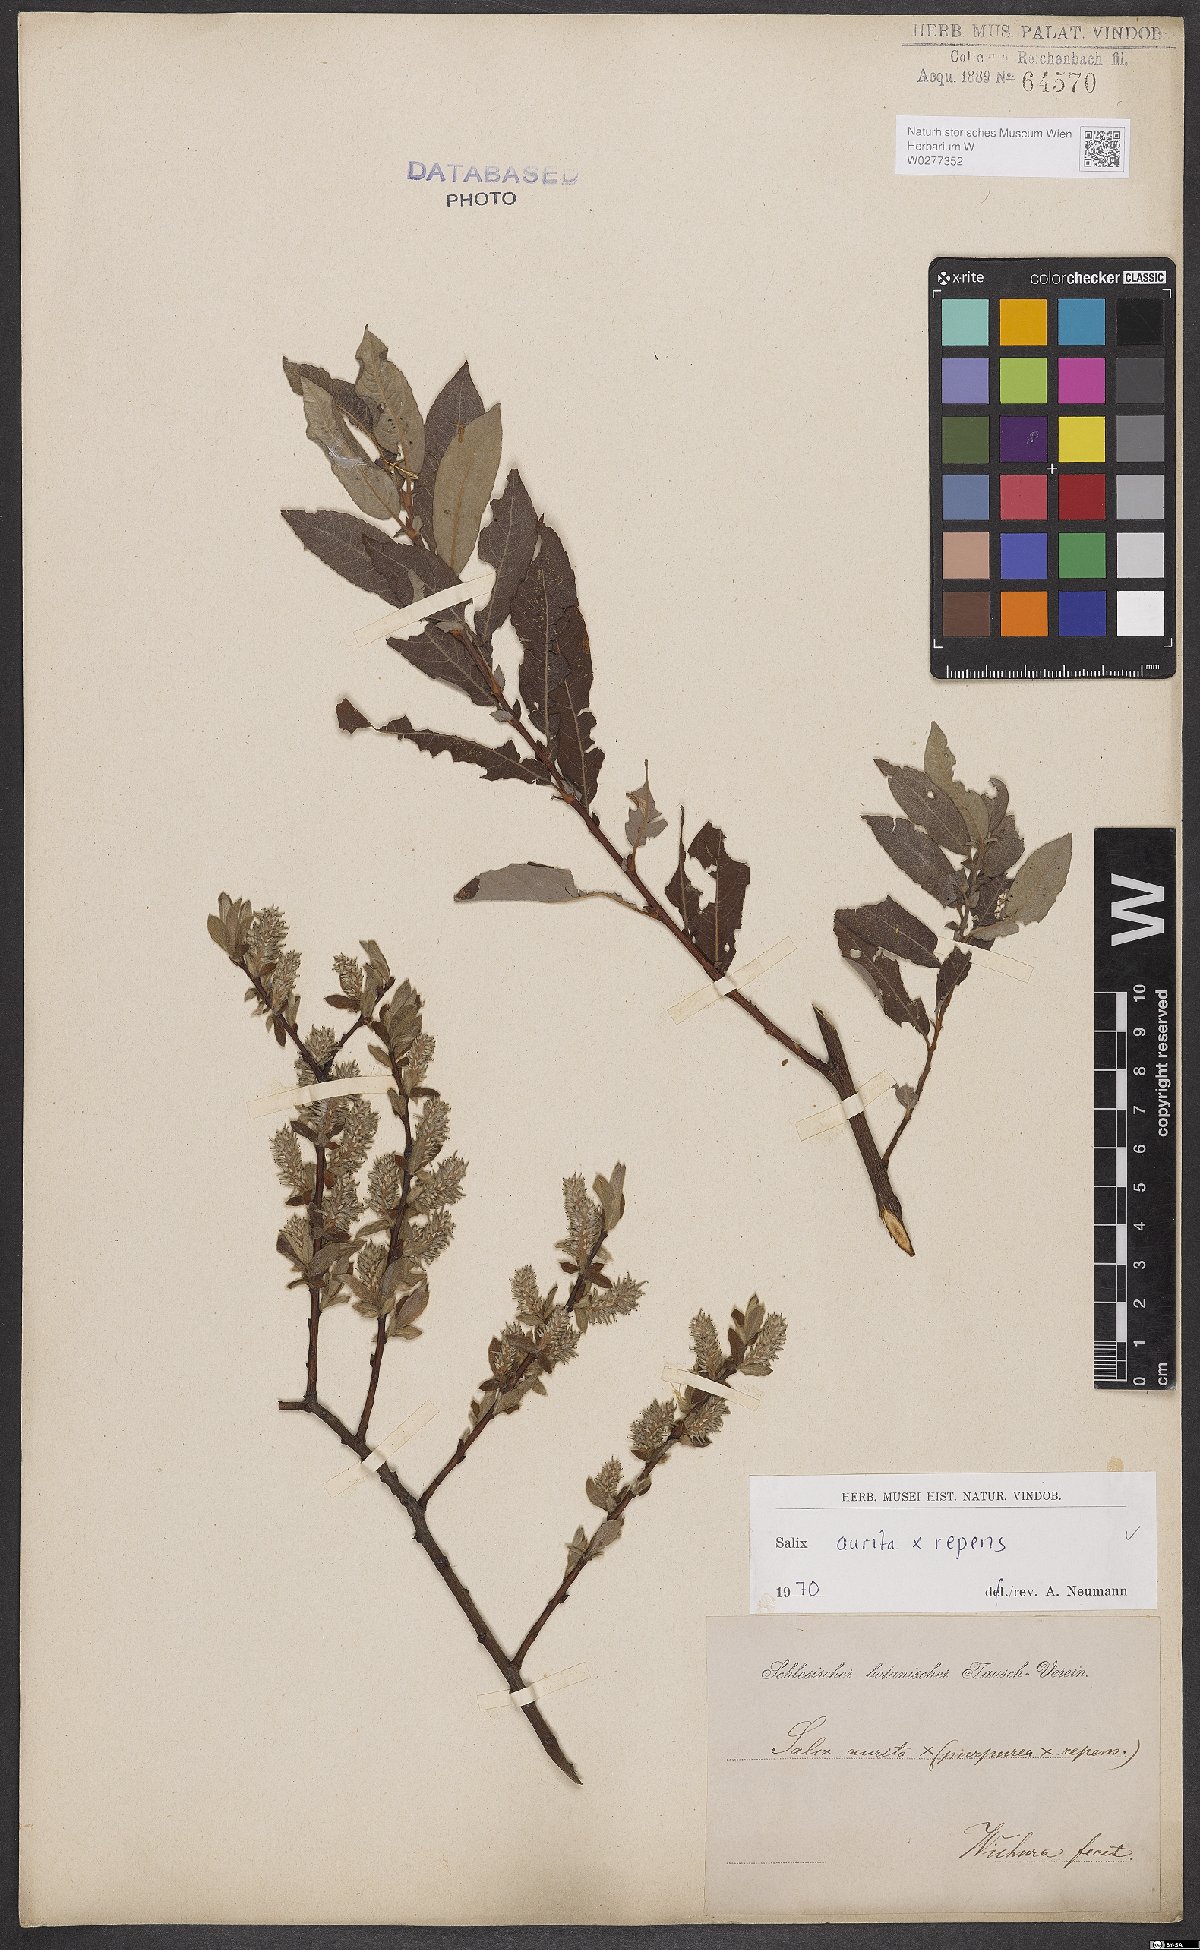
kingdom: Plantae
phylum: Tracheophyta
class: Magnoliopsida
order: Malpighiales
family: Salicaceae
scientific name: Salicaceae
